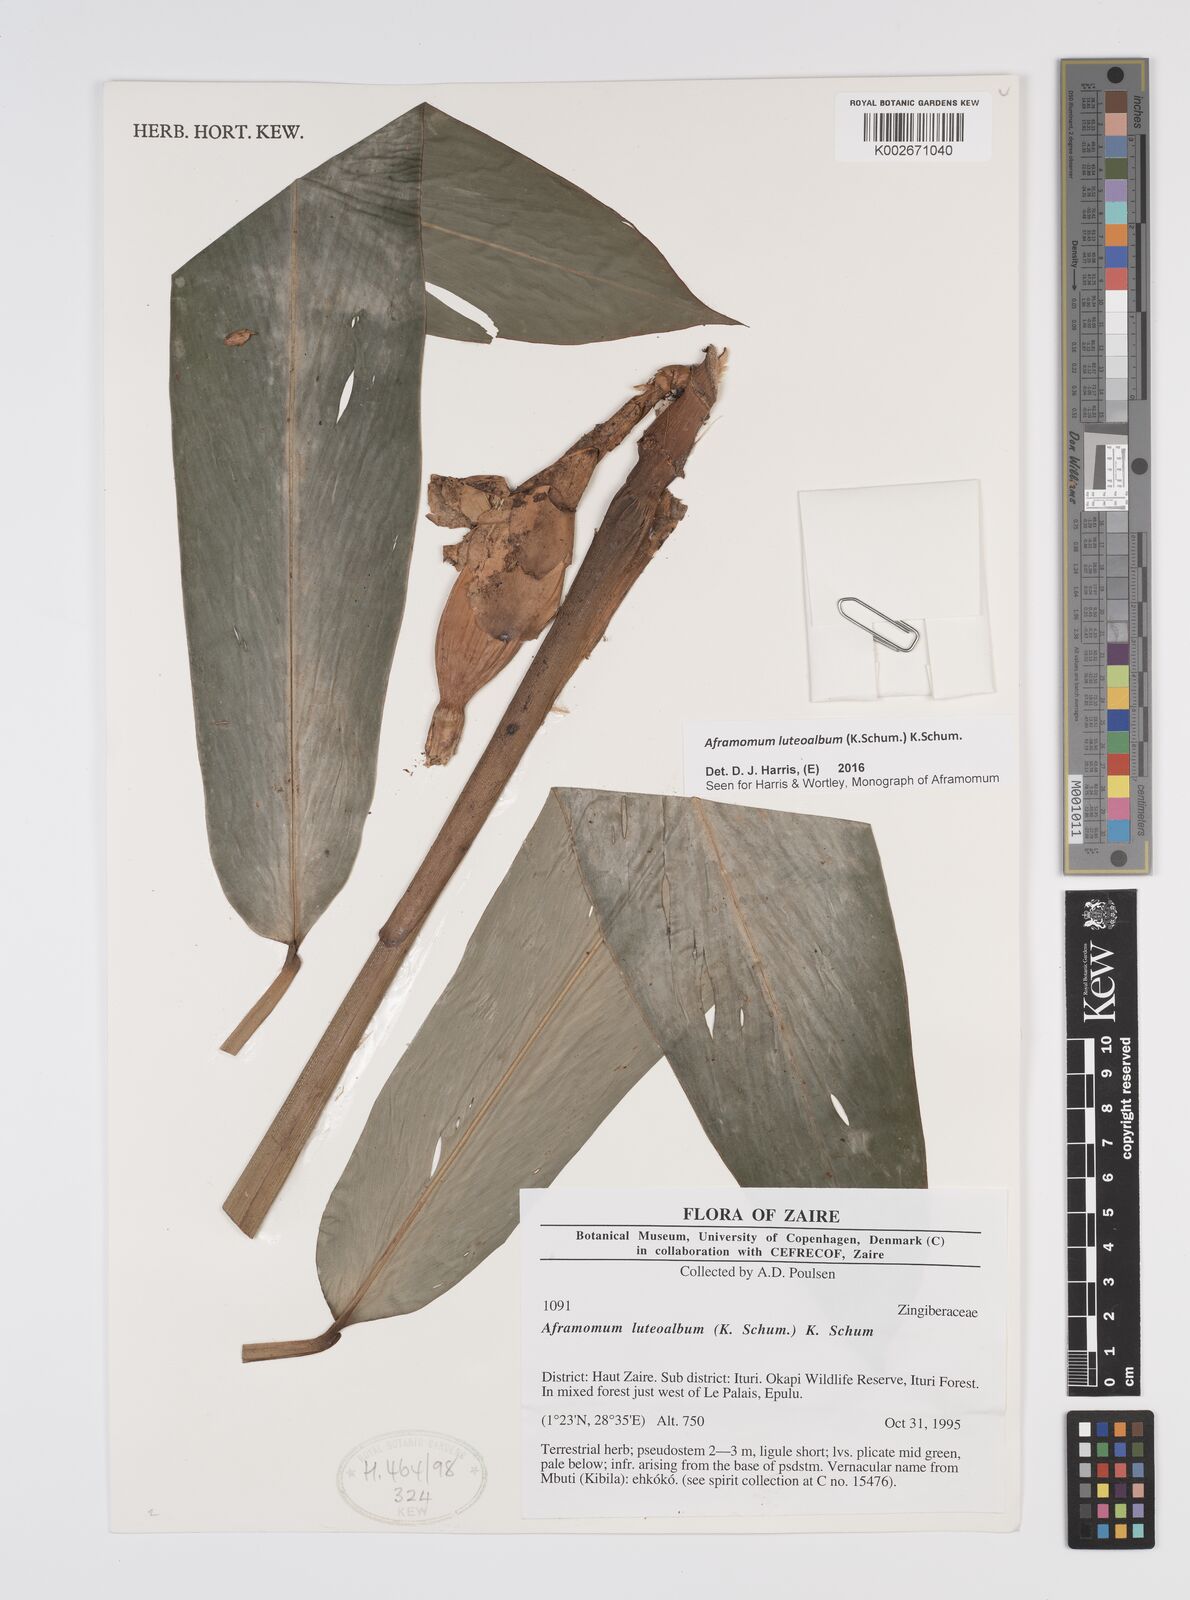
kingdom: Plantae
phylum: Tracheophyta
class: Liliopsida
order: Zingiberales
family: Zingiberaceae
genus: Aframomum
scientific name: Aframomum luteoalbum
